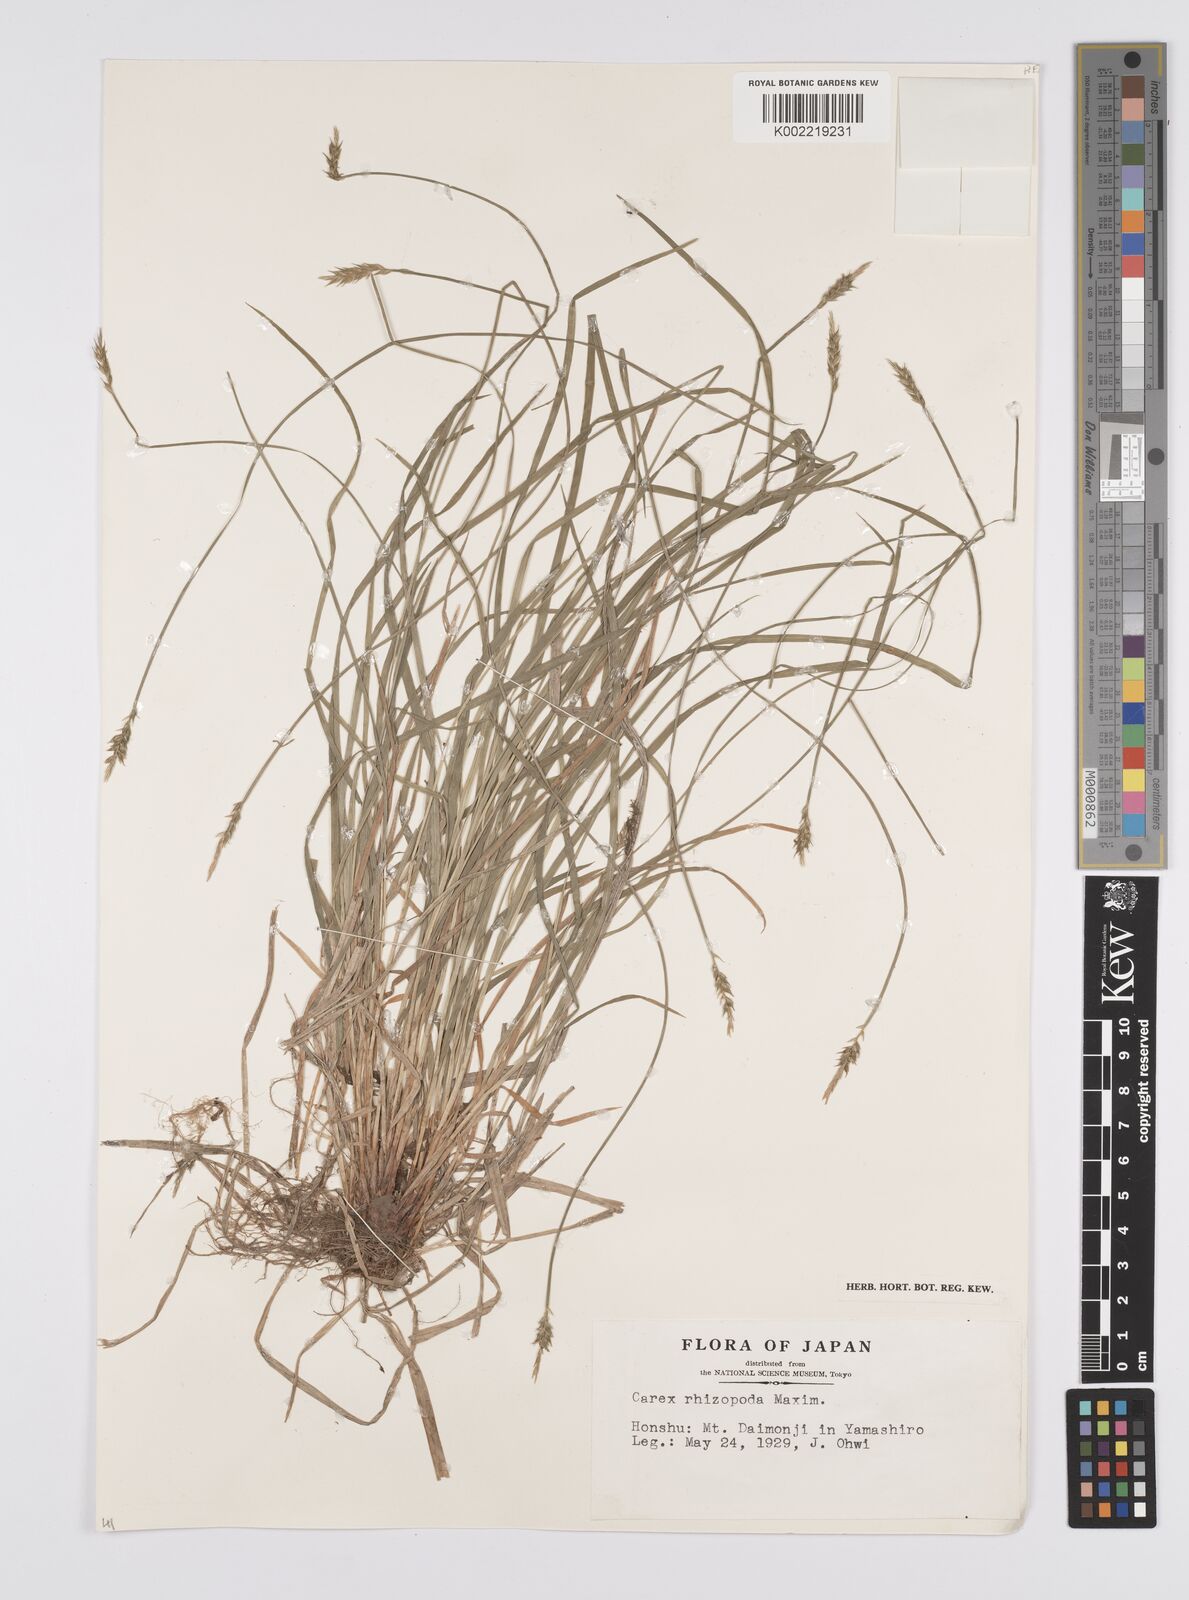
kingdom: Plantae
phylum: Tracheophyta
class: Liliopsida
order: Poales
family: Cyperaceae
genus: Carex
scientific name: Carex rhizopoda
